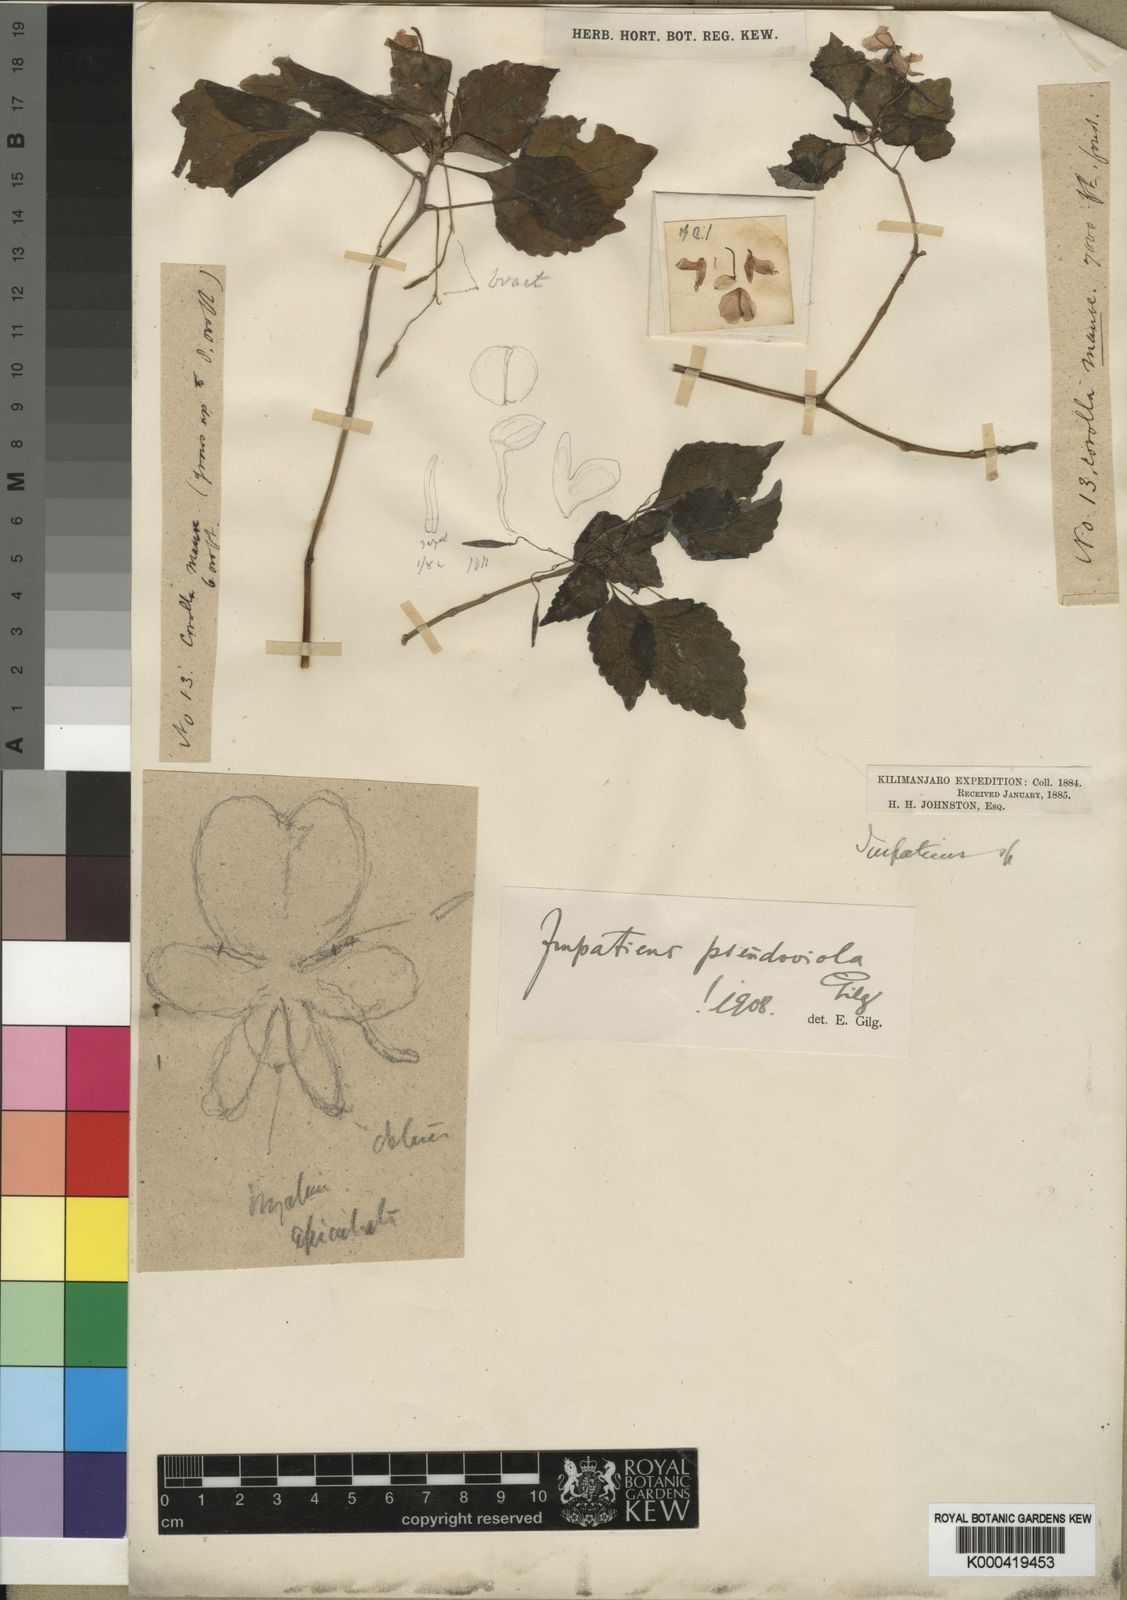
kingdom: Plantae
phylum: Tracheophyta
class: Magnoliopsida
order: Ericales
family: Balsaminaceae
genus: Impatiens
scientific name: Impatiens pseudoviola
